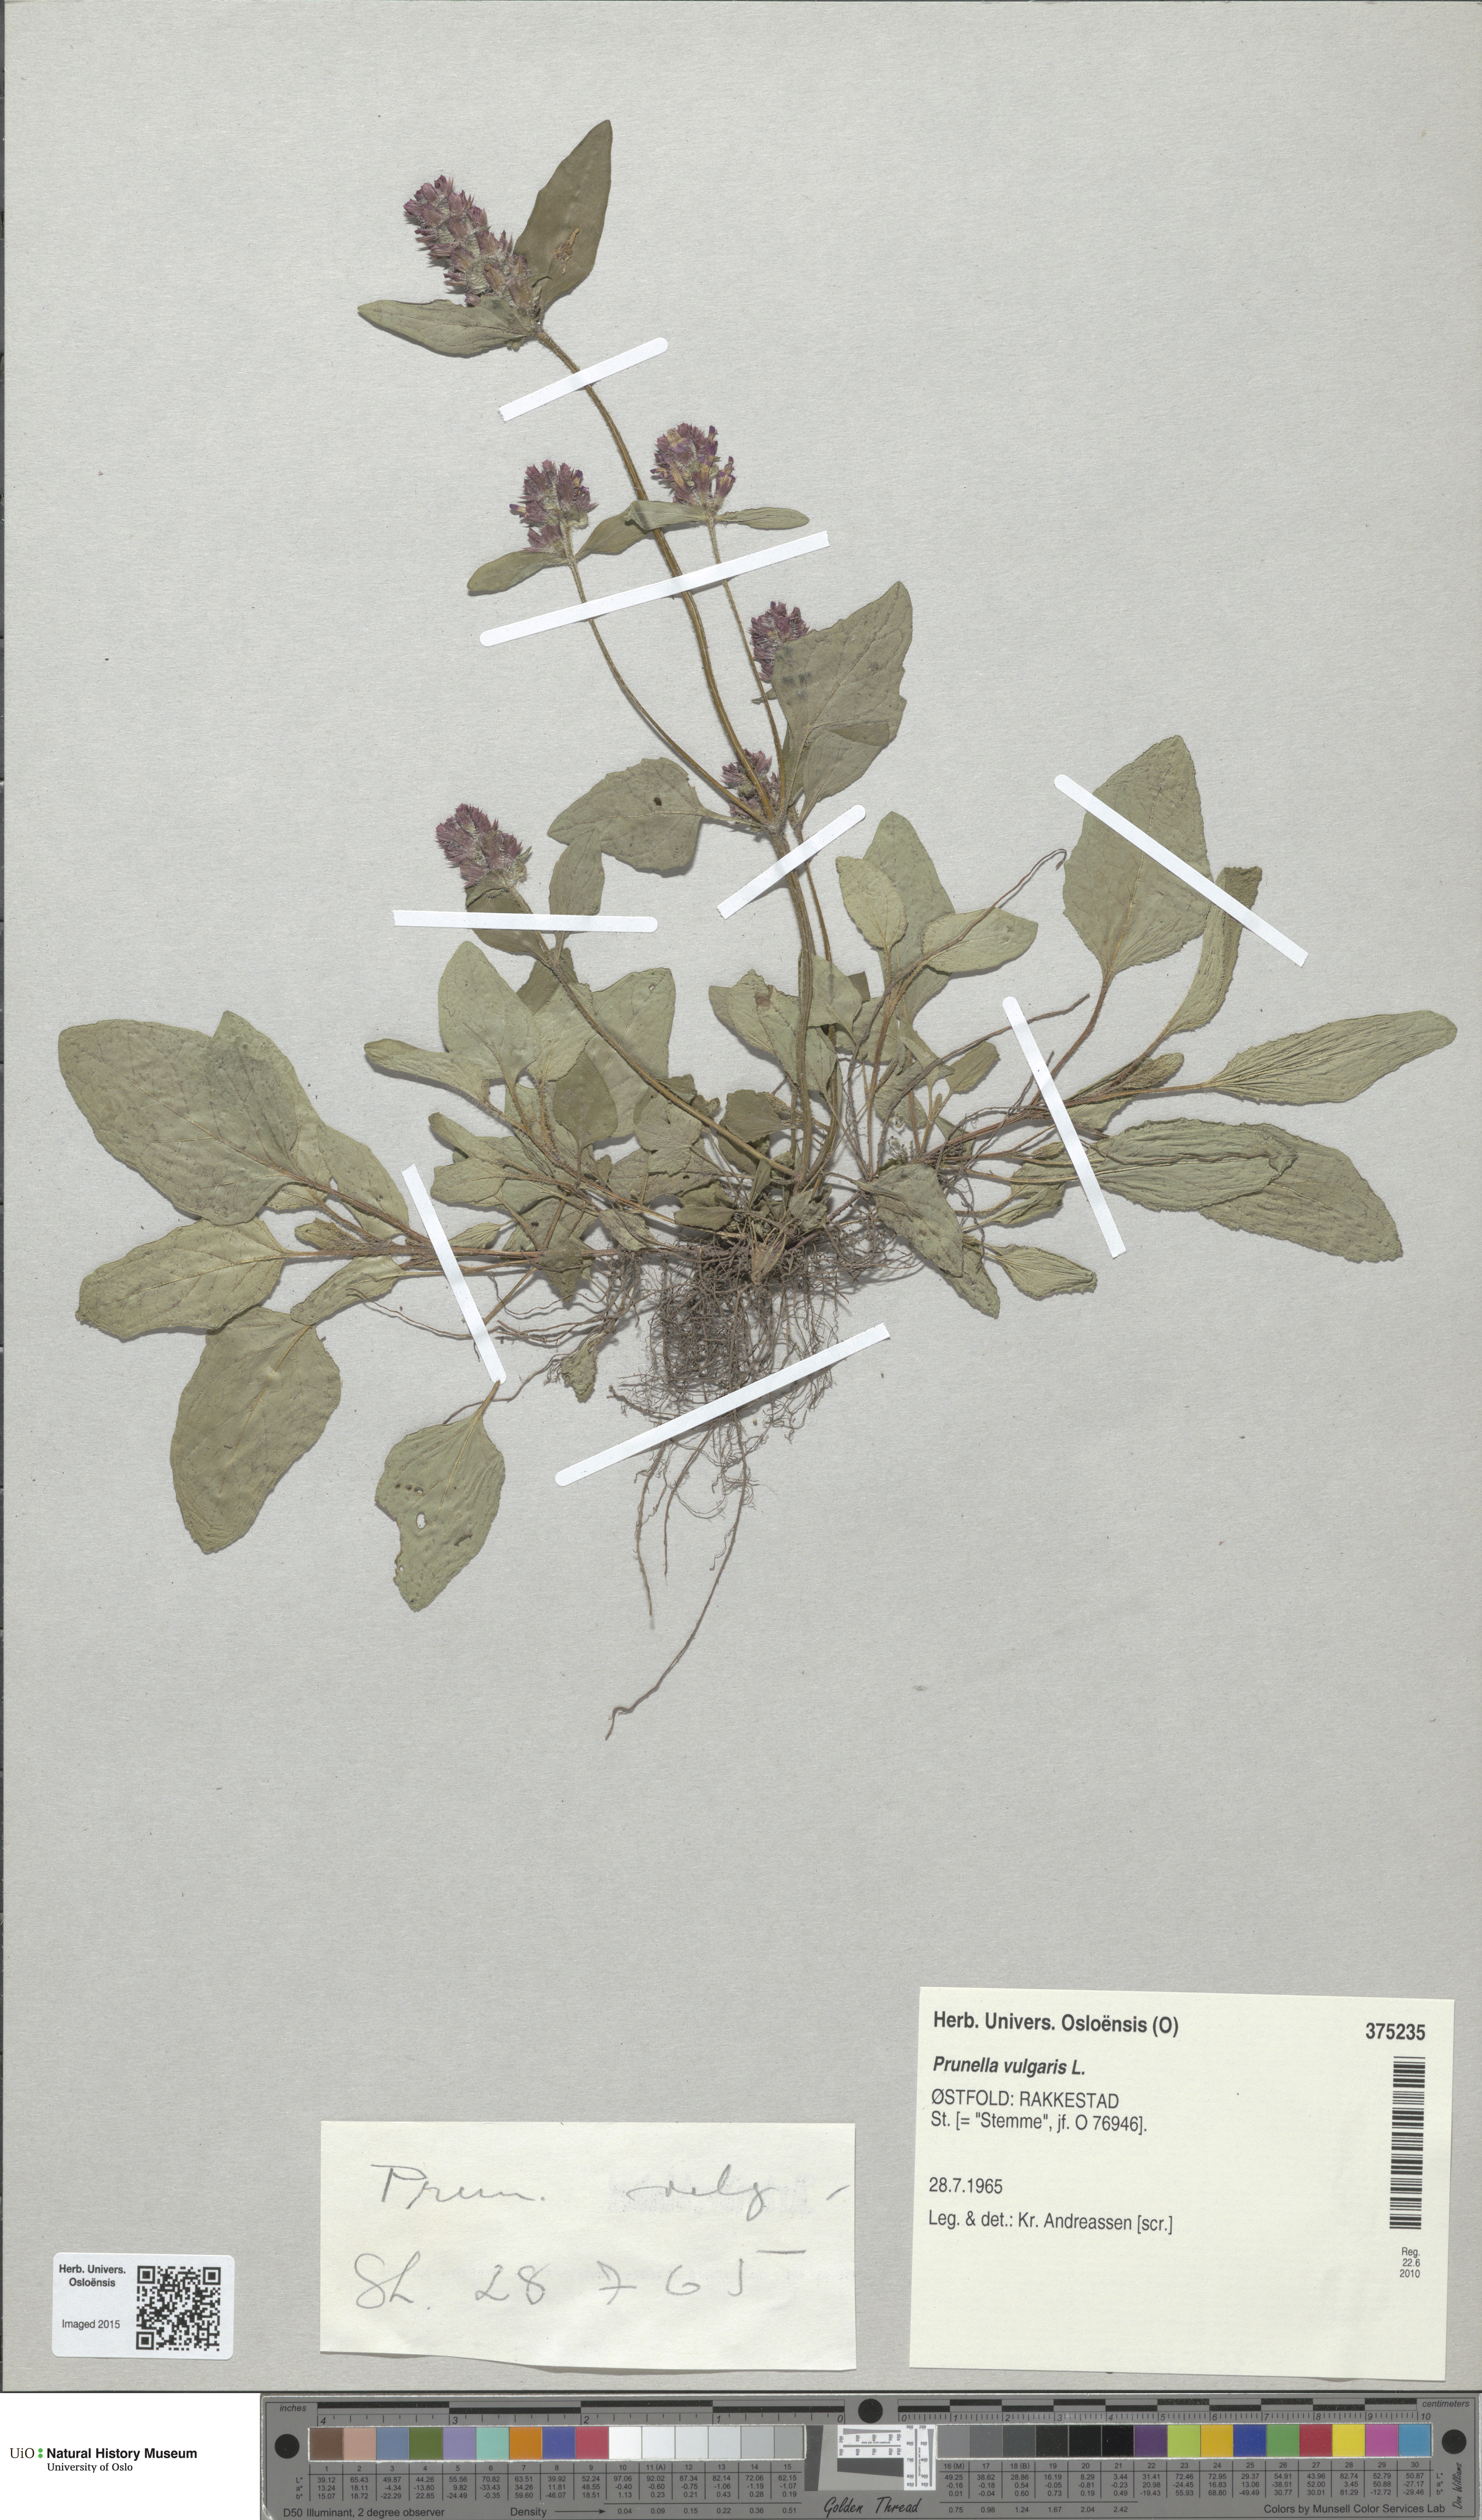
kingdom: Plantae
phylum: Tracheophyta
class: Magnoliopsida
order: Lamiales
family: Lamiaceae
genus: Prunella
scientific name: Prunella vulgaris
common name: Heal-all
